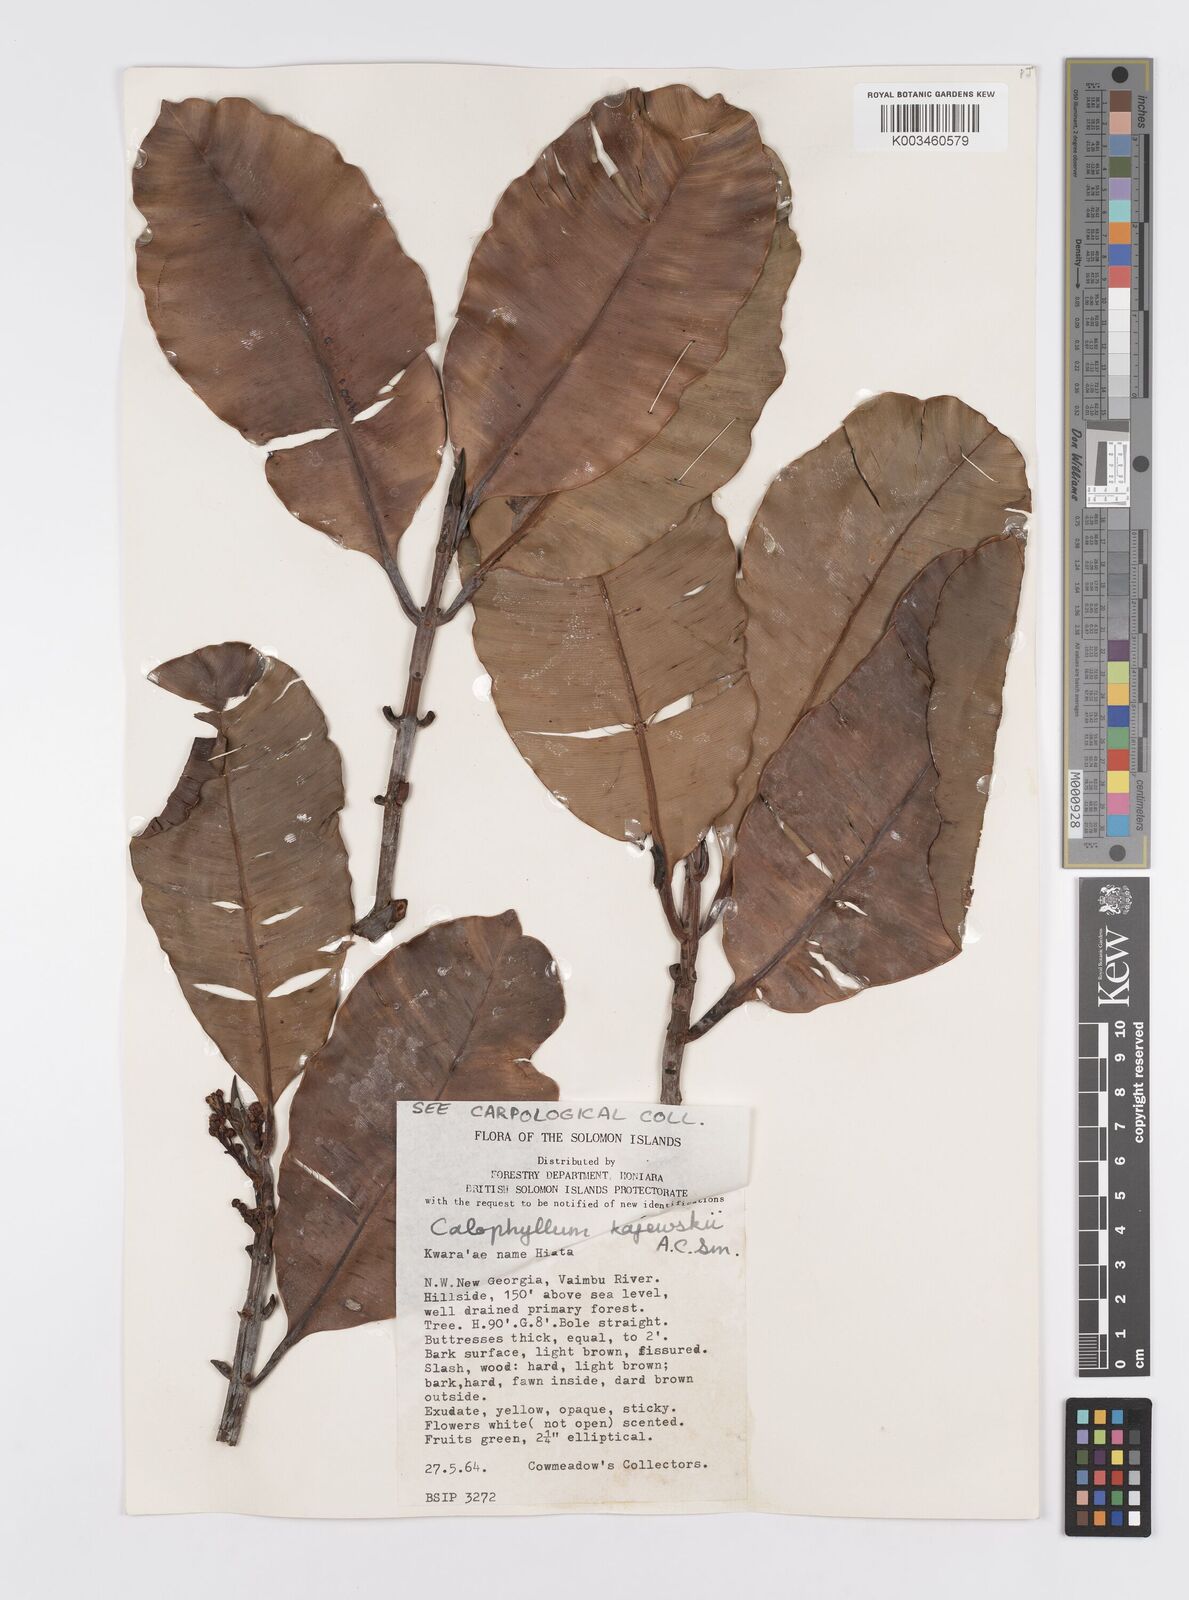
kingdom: Plantae
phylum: Tracheophyta
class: Magnoliopsida
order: Malpighiales
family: Calophyllaceae
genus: Calophyllum
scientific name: Calophyllum peekelii
